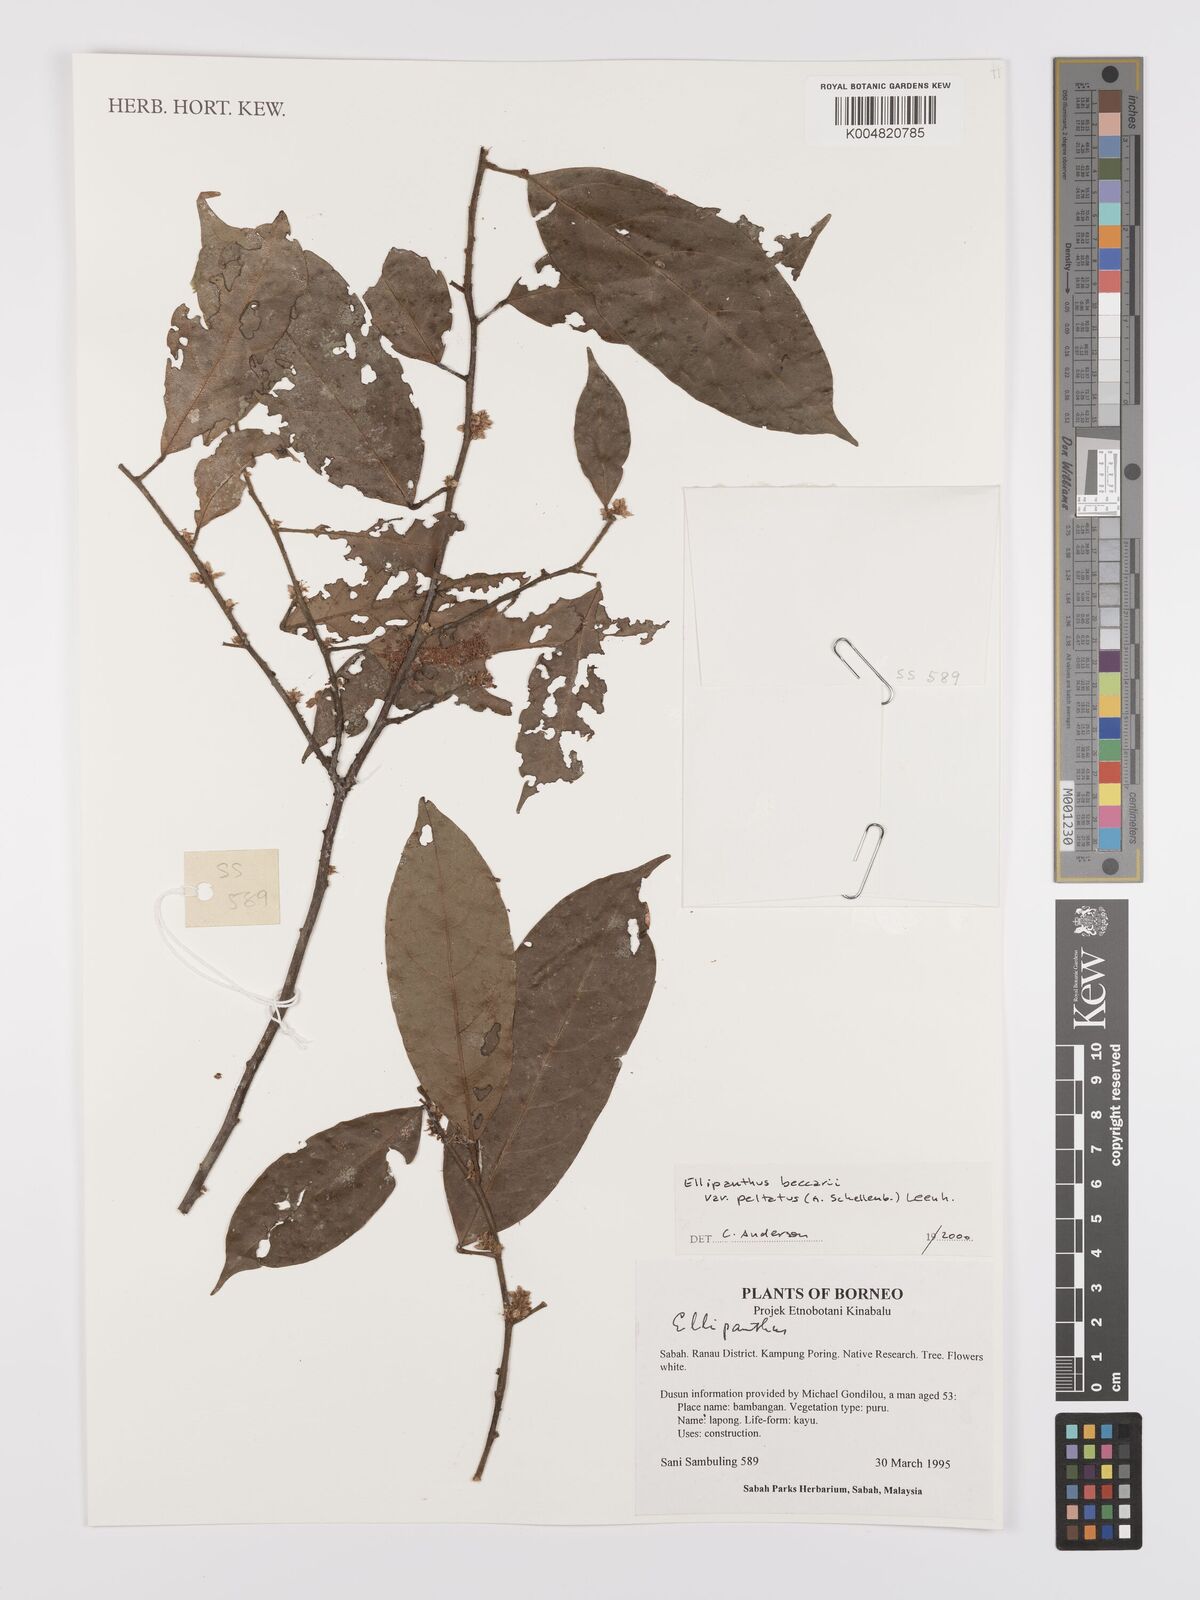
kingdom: Plantae
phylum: Tracheophyta
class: Magnoliopsida
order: Oxalidales
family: Connaraceae
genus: Ellipanthus
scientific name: Ellipanthus beccarii
